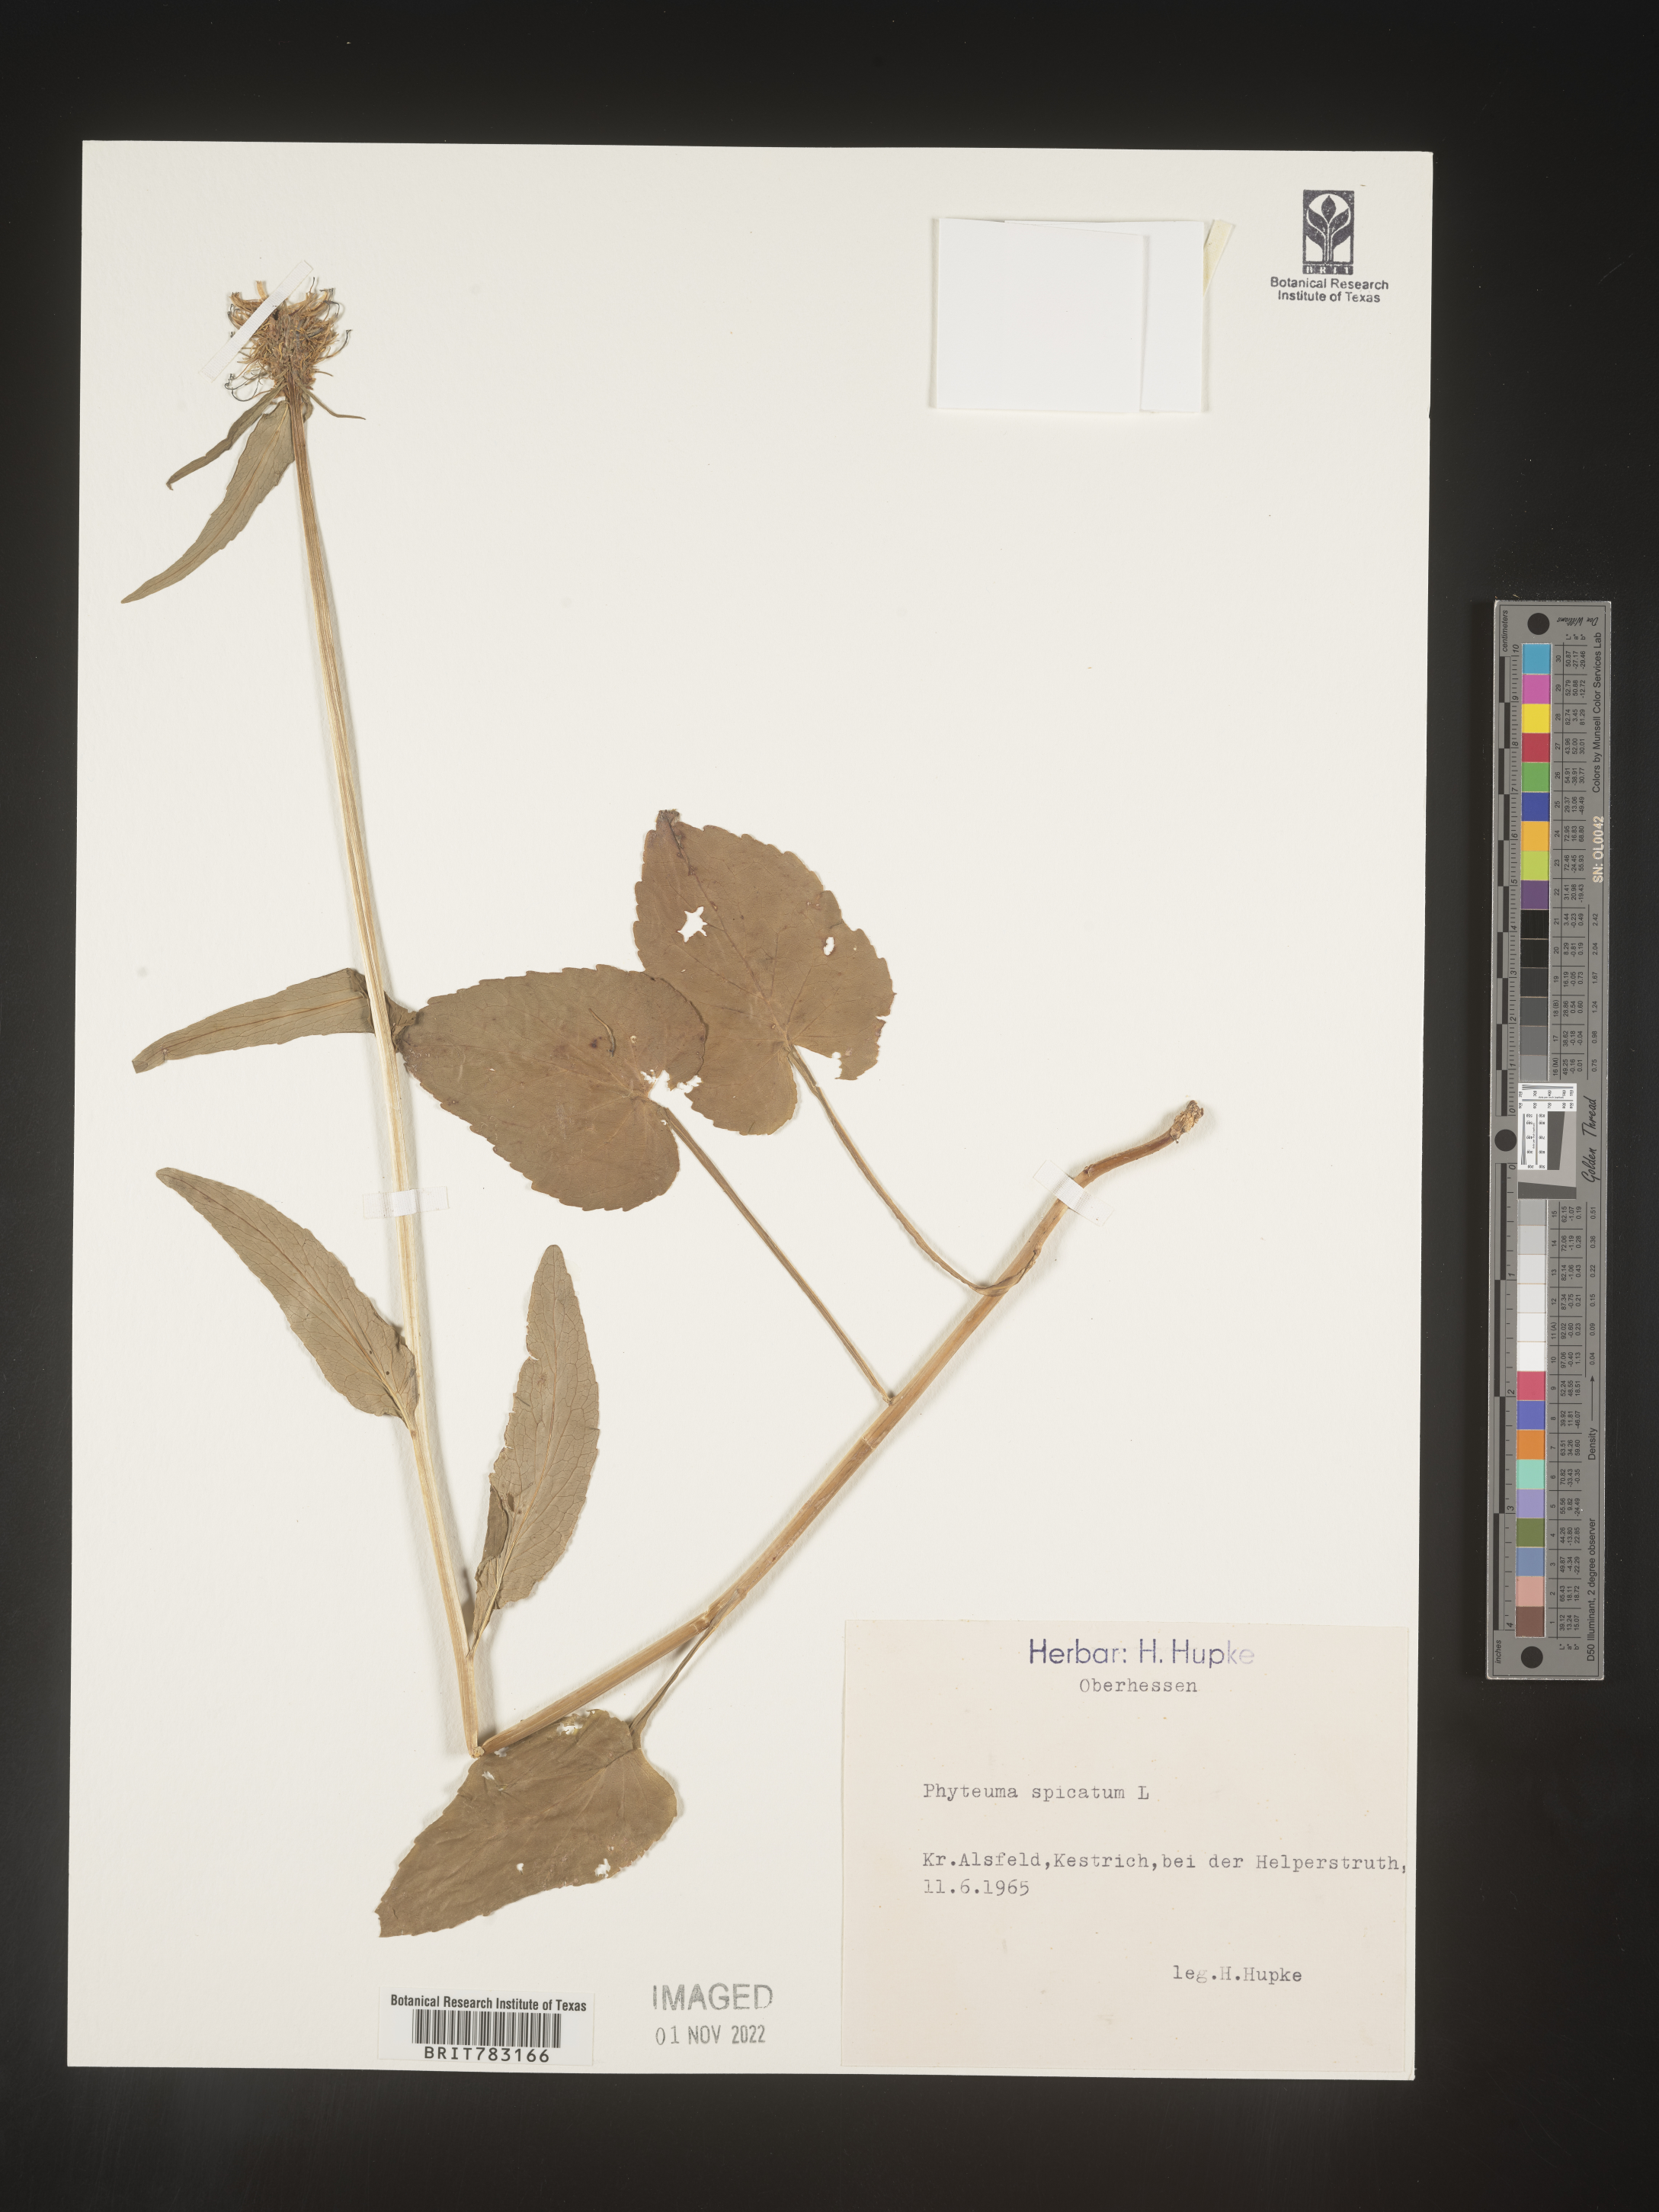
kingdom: Plantae
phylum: Tracheophyta
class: Magnoliopsida
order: Asterales
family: Campanulaceae
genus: Phyteuma
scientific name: Phyteuma
